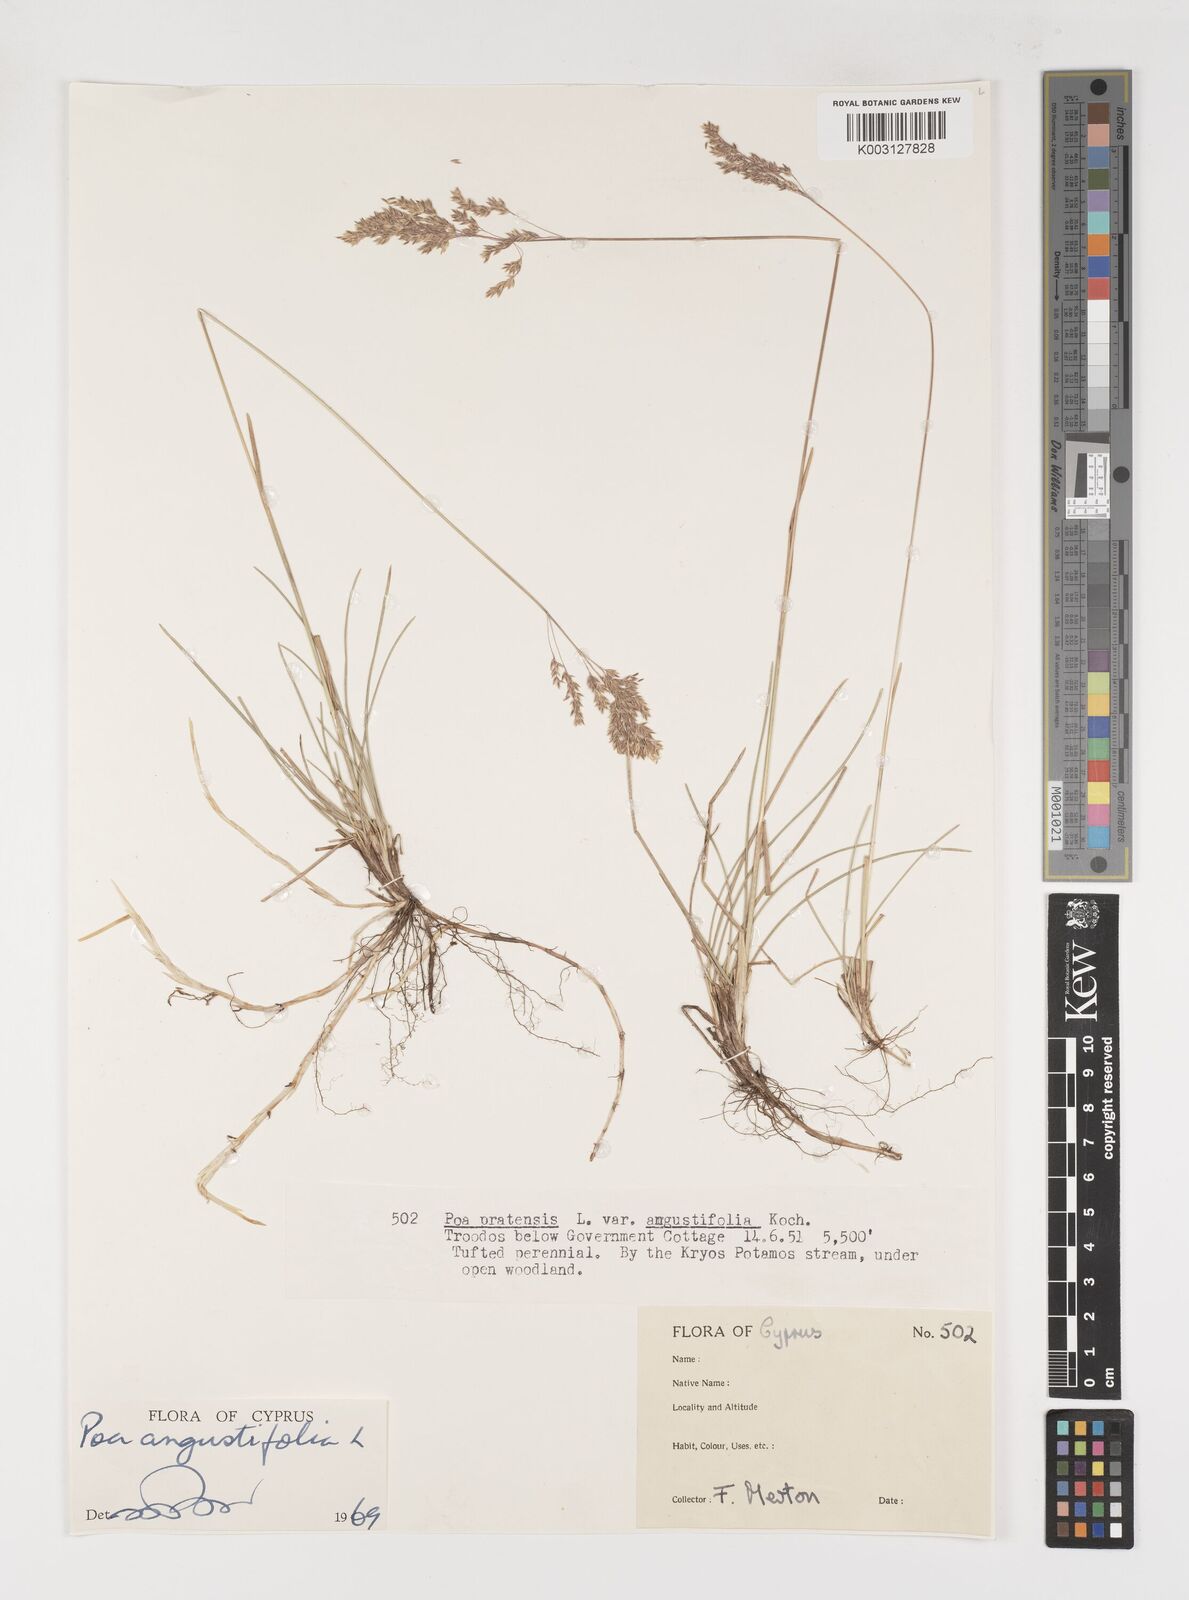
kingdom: Plantae
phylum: Tracheophyta
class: Liliopsida
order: Poales
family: Poaceae
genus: Poa
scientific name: Poa angustifolia
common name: Narrow-leaved meadow-grass
